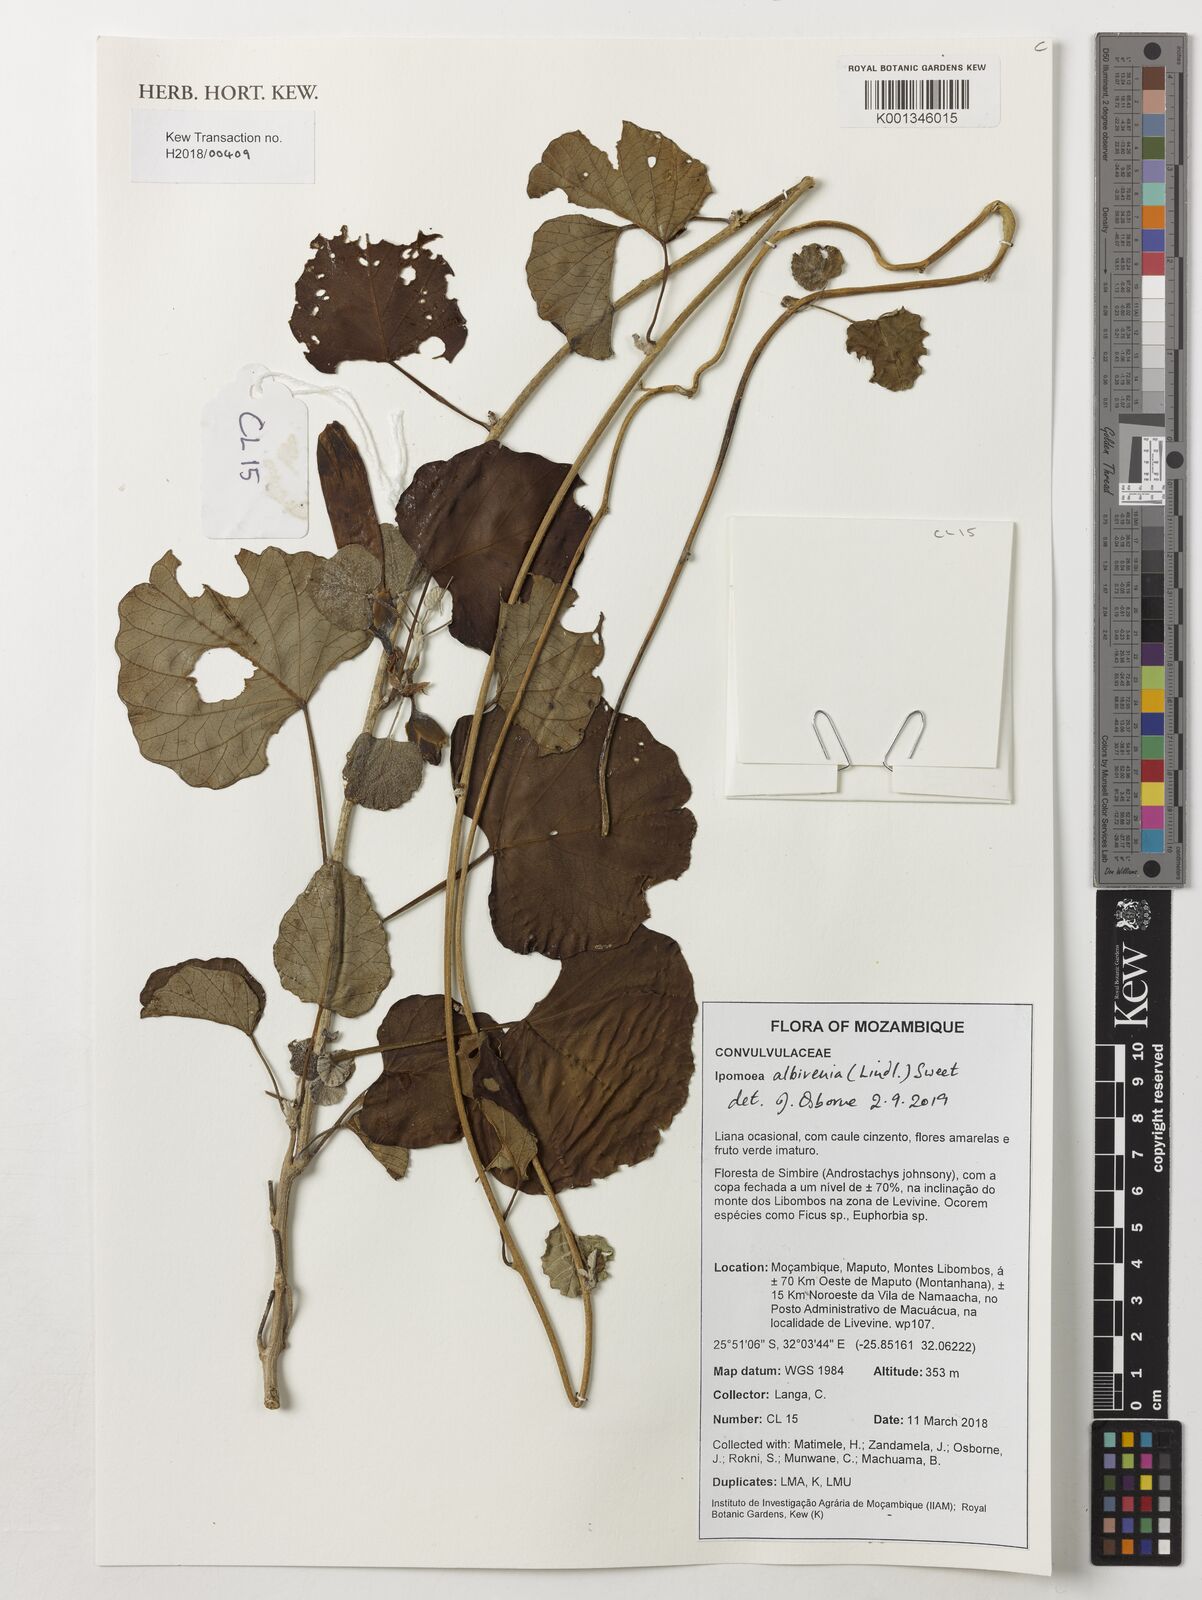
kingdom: Plantae
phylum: Tracheophyta
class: Magnoliopsida
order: Solanales
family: Convolvulaceae
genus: Ipomoea
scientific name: Ipomoea albivenia
